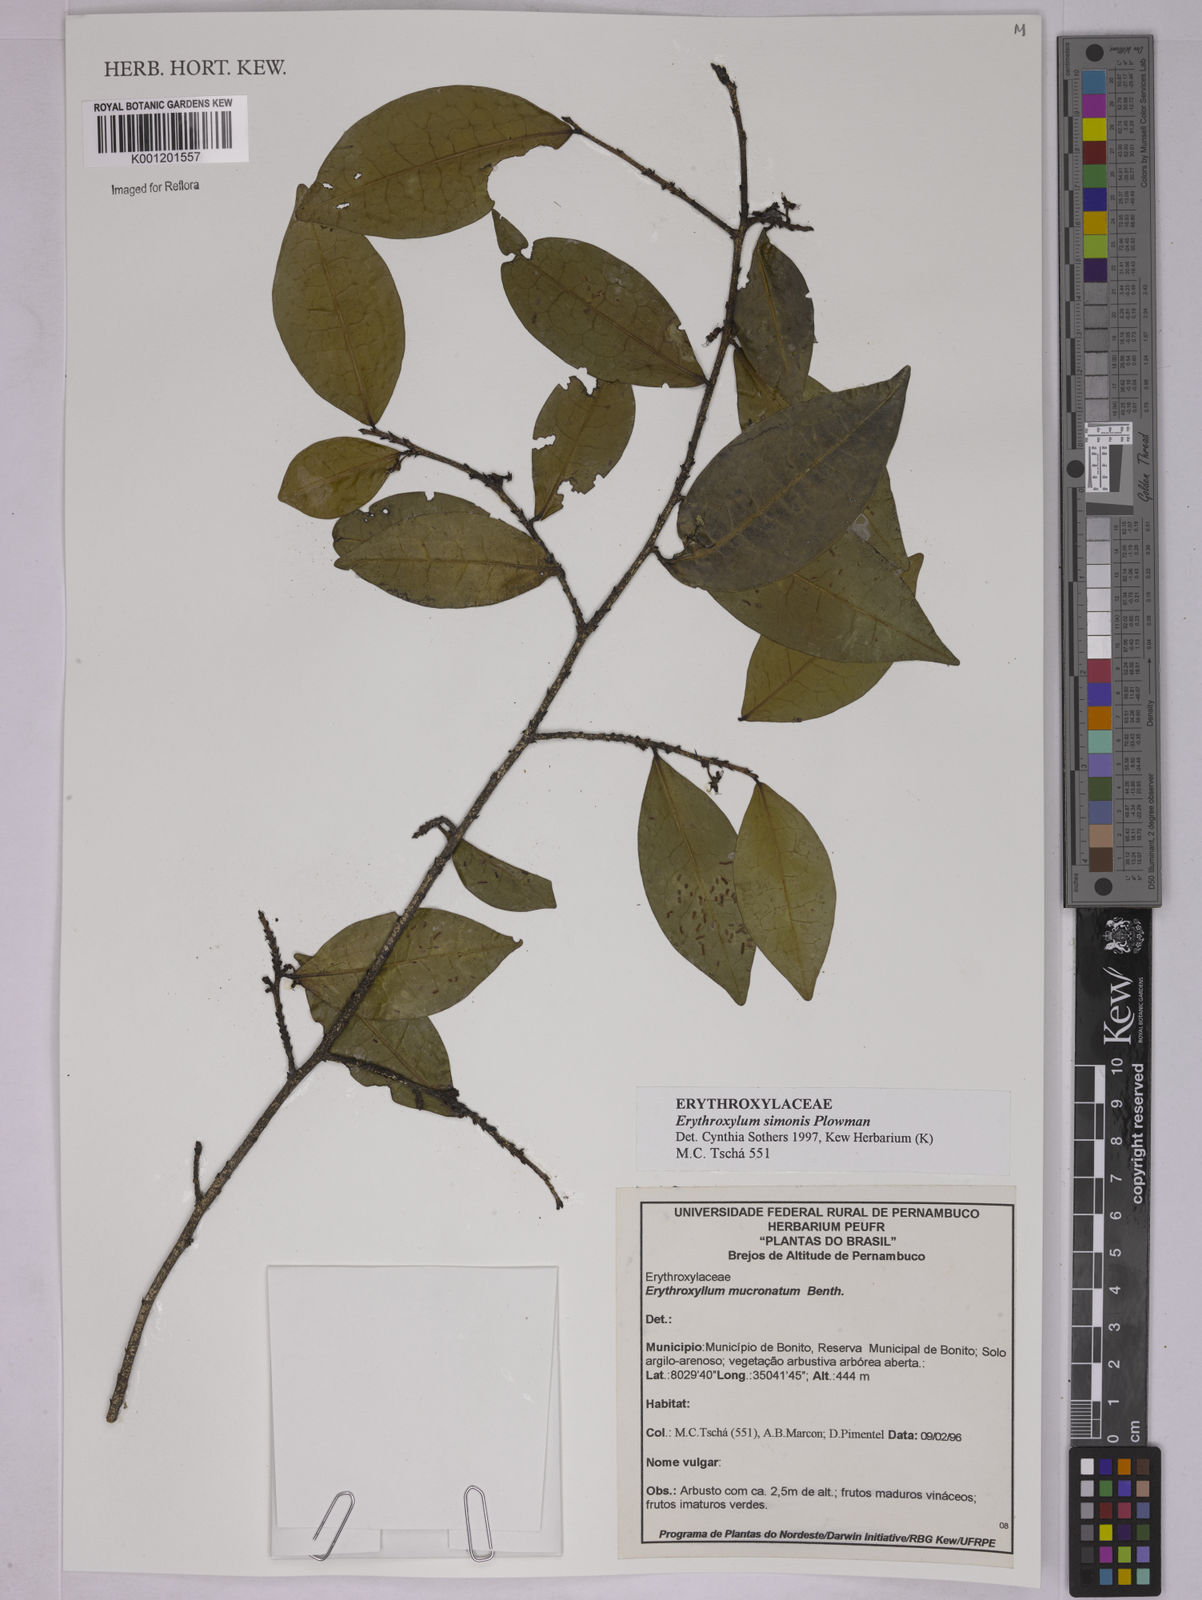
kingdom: Plantae
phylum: Tracheophyta
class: Magnoliopsida
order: Malpighiales
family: Erythroxylaceae
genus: Erythroxylum
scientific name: Erythroxylum simonis
